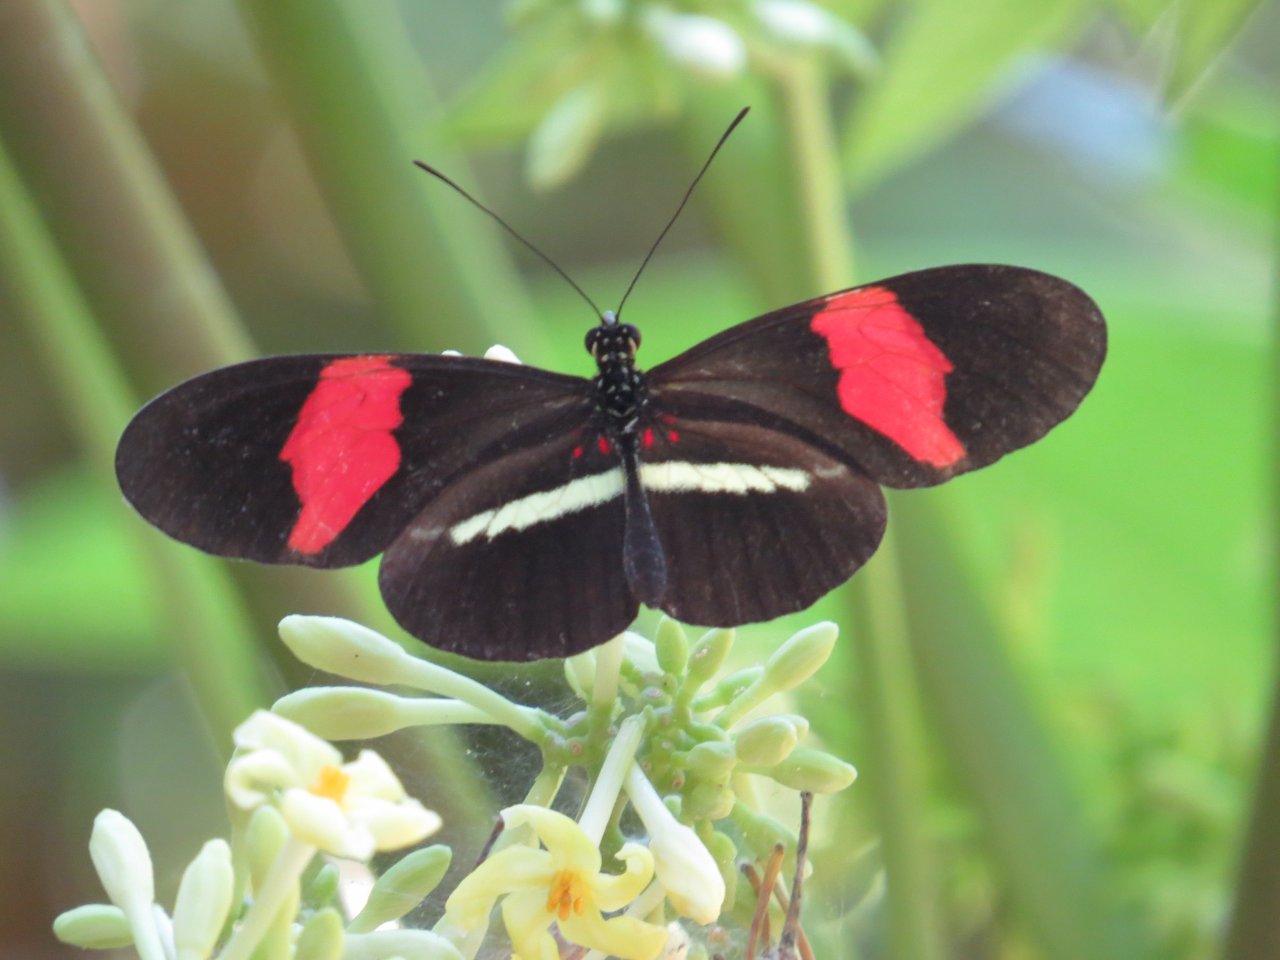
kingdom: Animalia
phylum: Arthropoda
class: Insecta
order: Lepidoptera
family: Nymphalidae
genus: Heliconius
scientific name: Heliconius erato
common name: Erato Heliconian
